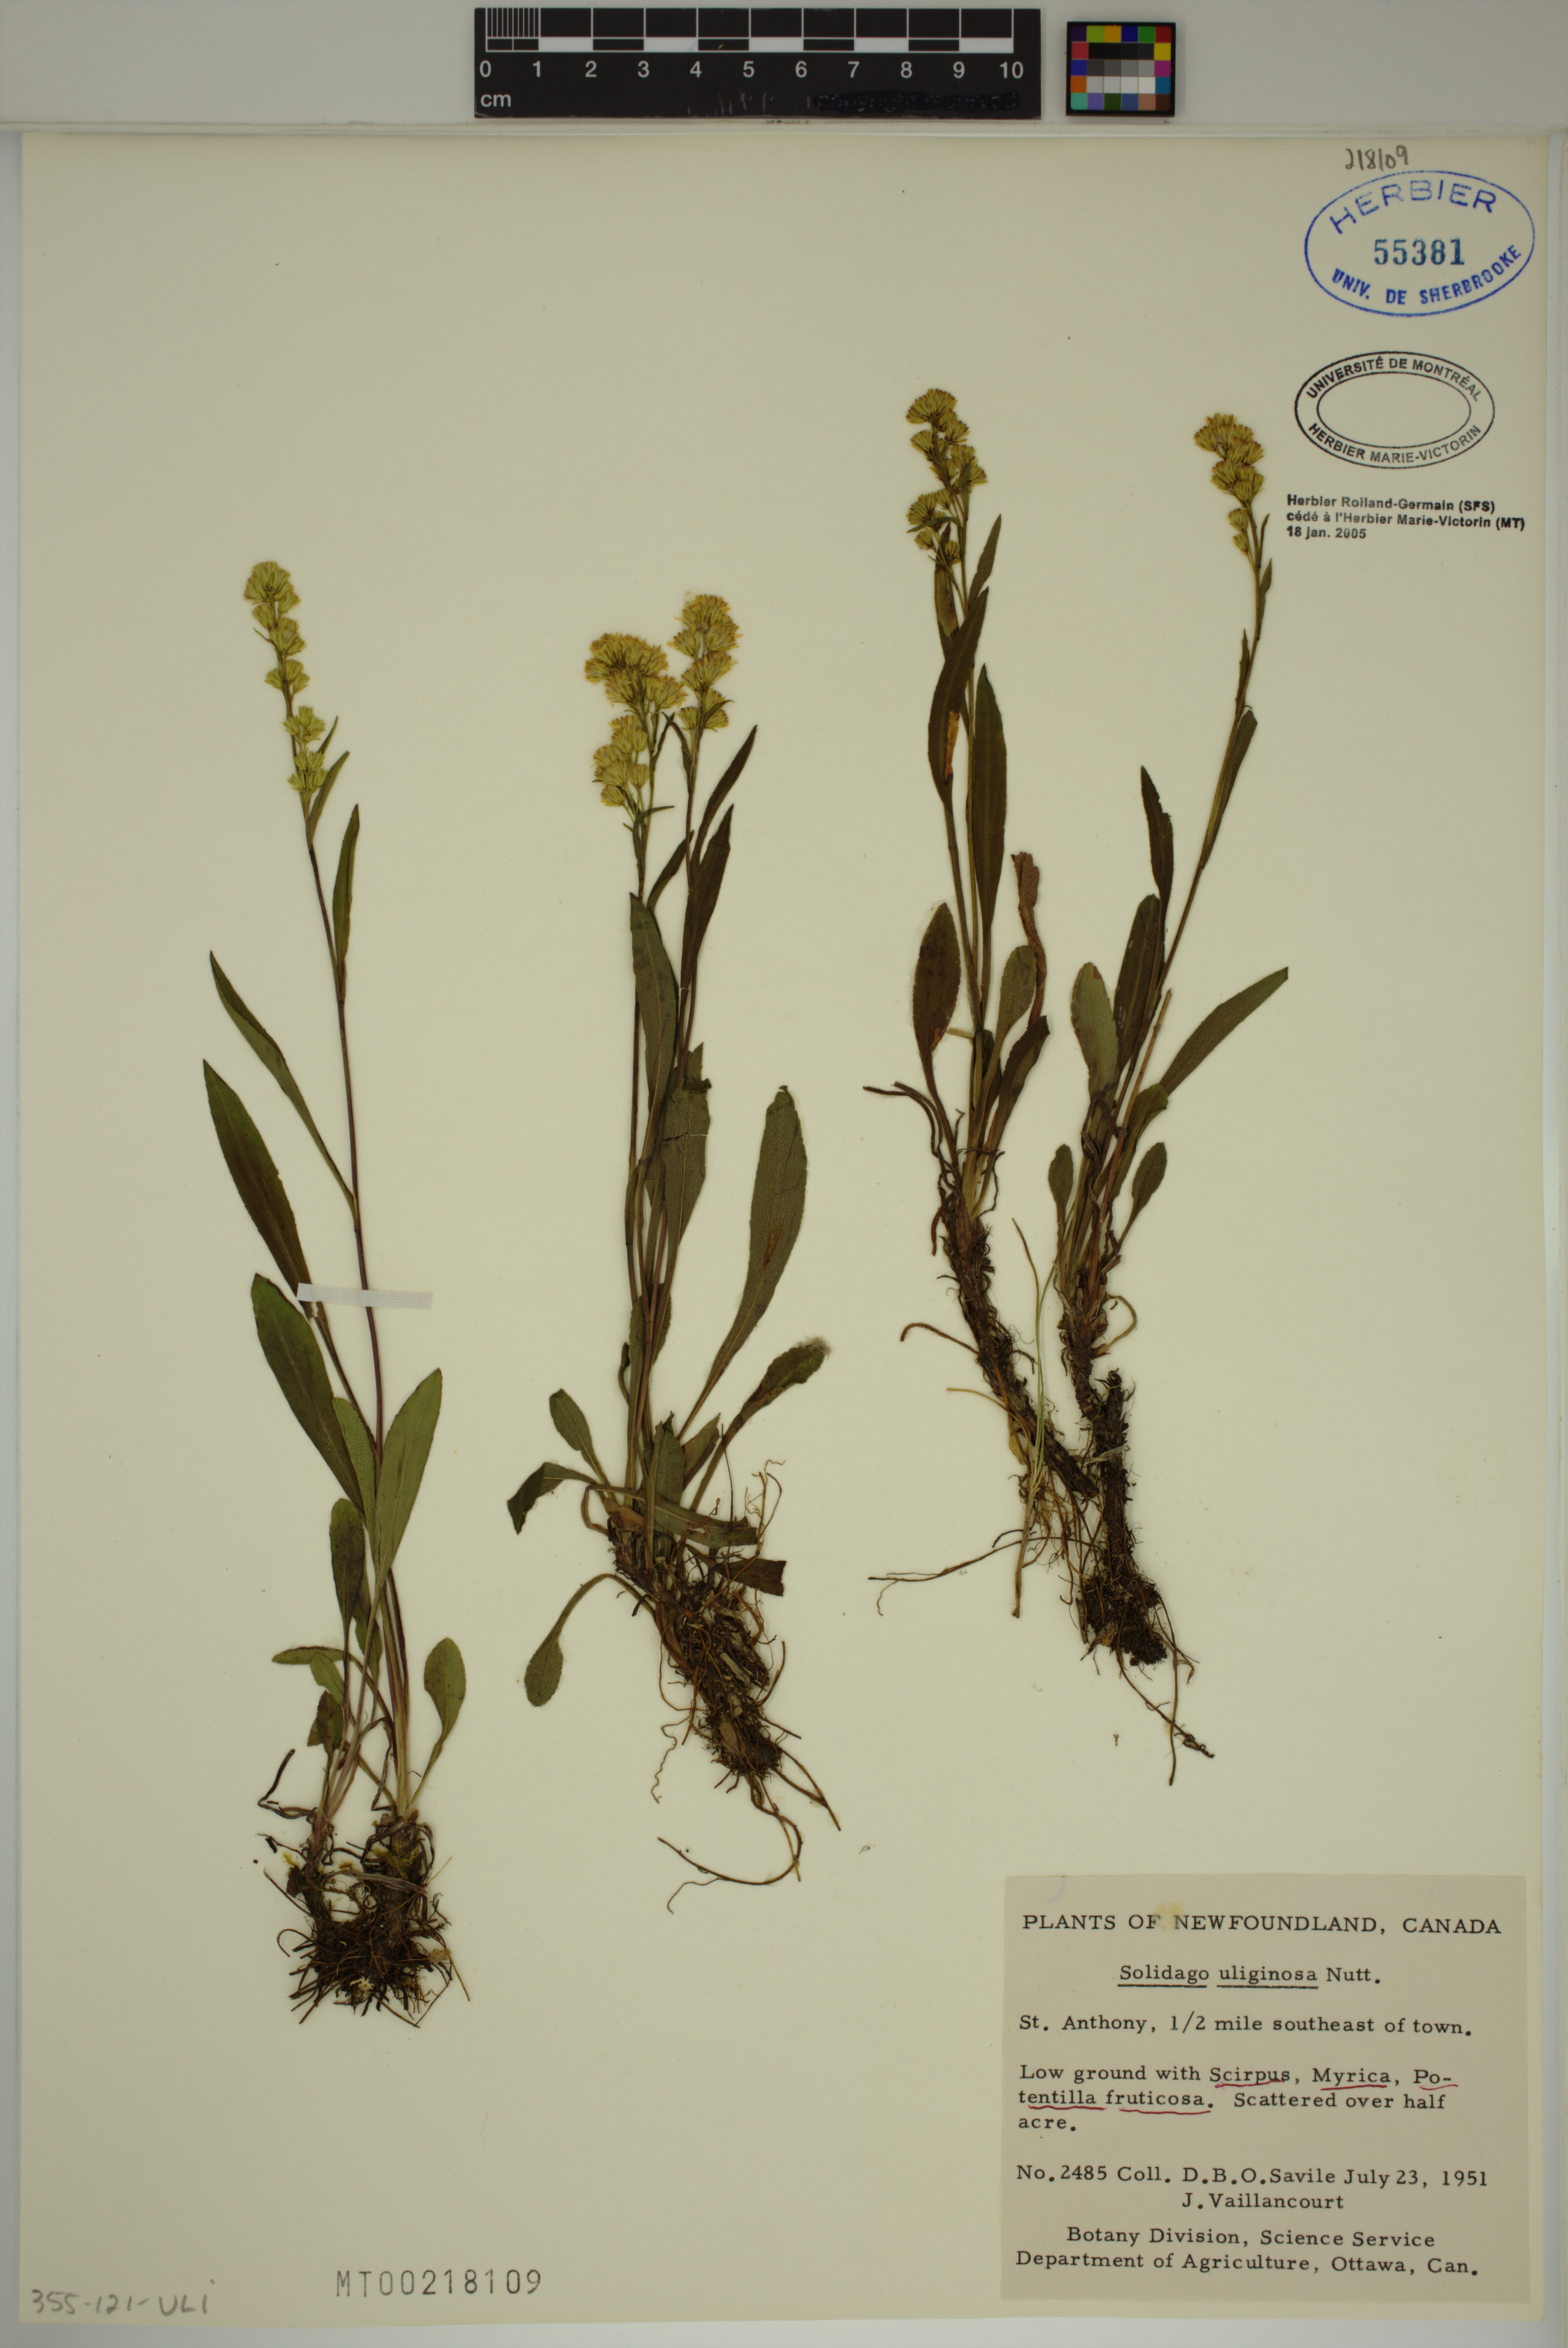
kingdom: Plantae
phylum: Tracheophyta
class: Magnoliopsida
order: Asterales
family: Asteraceae
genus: Solidago
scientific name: Solidago uliginosa
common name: Bog goldenrod
